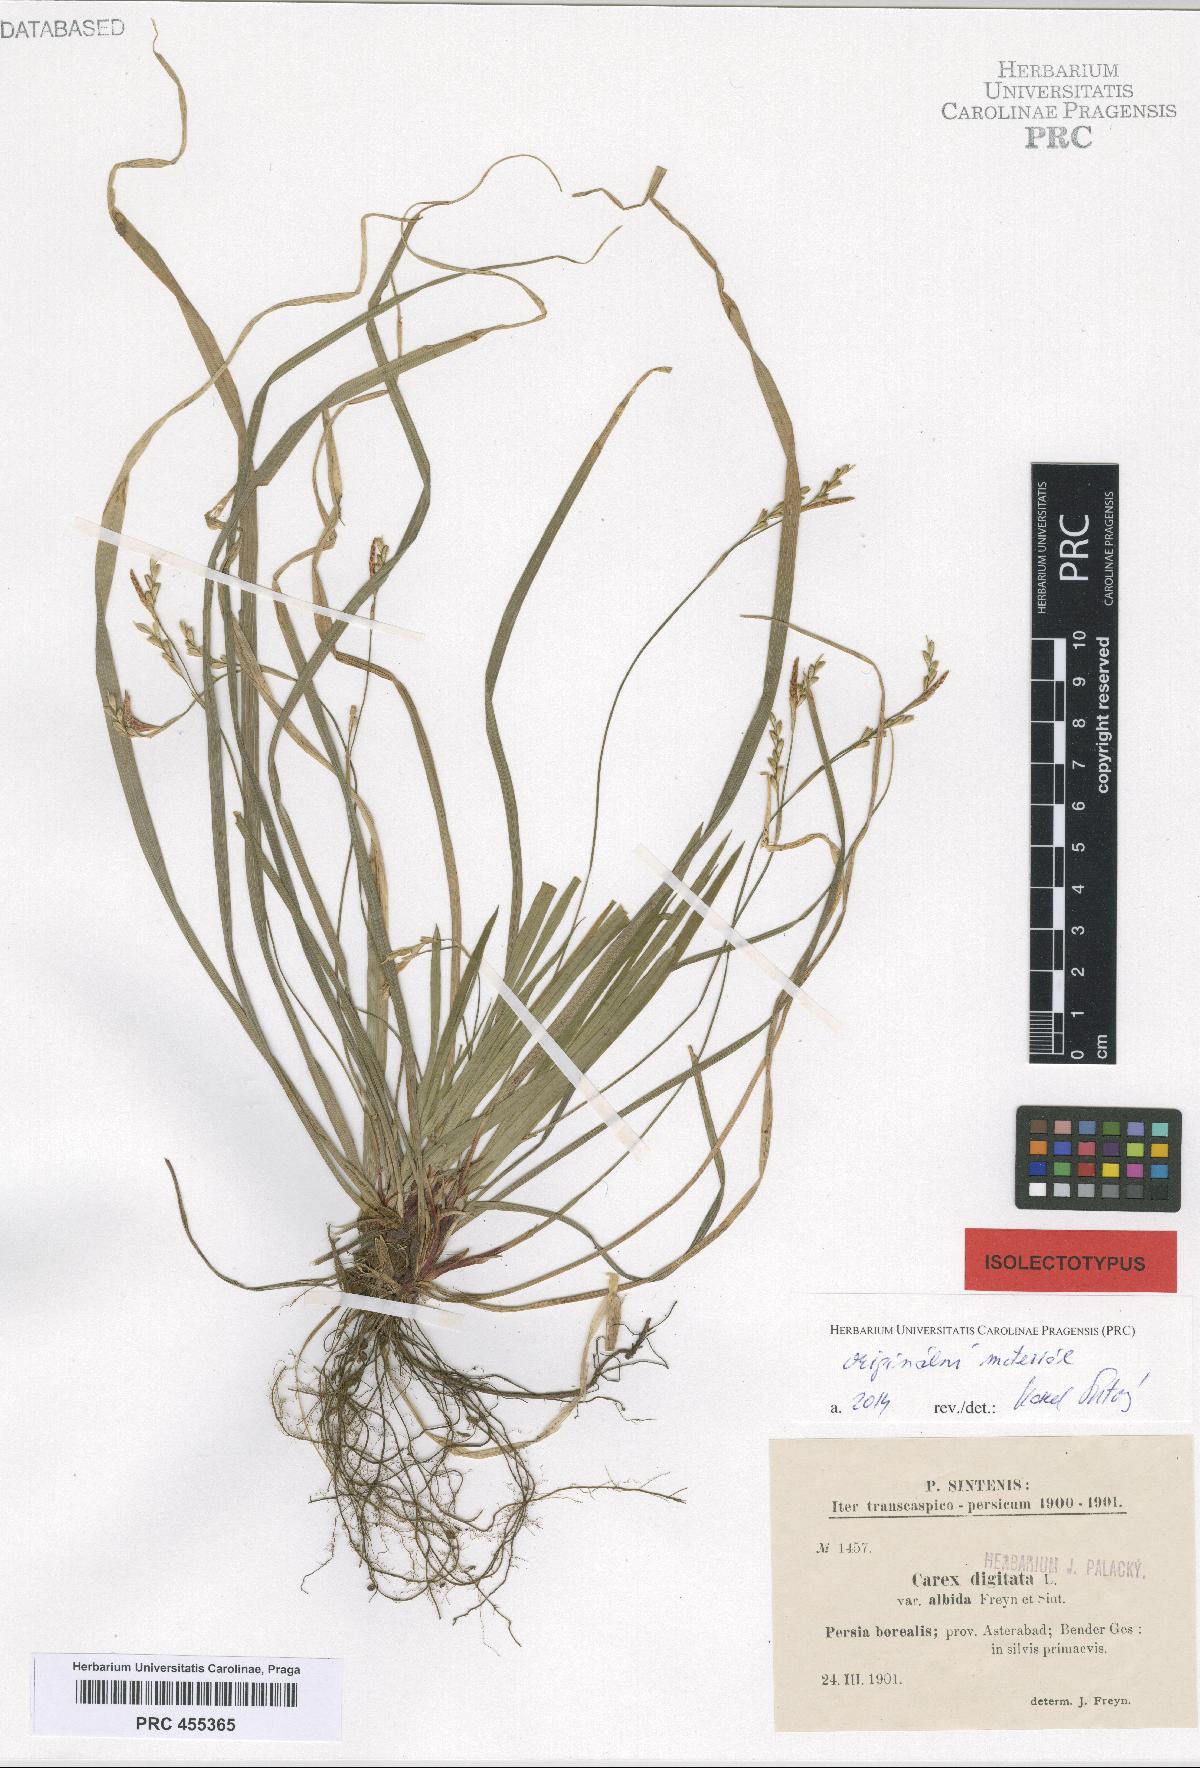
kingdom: Plantae
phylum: Tracheophyta
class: Liliopsida
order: Poales
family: Cyperaceae
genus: Carex
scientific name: Carex digitata
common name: Fingered sedge
